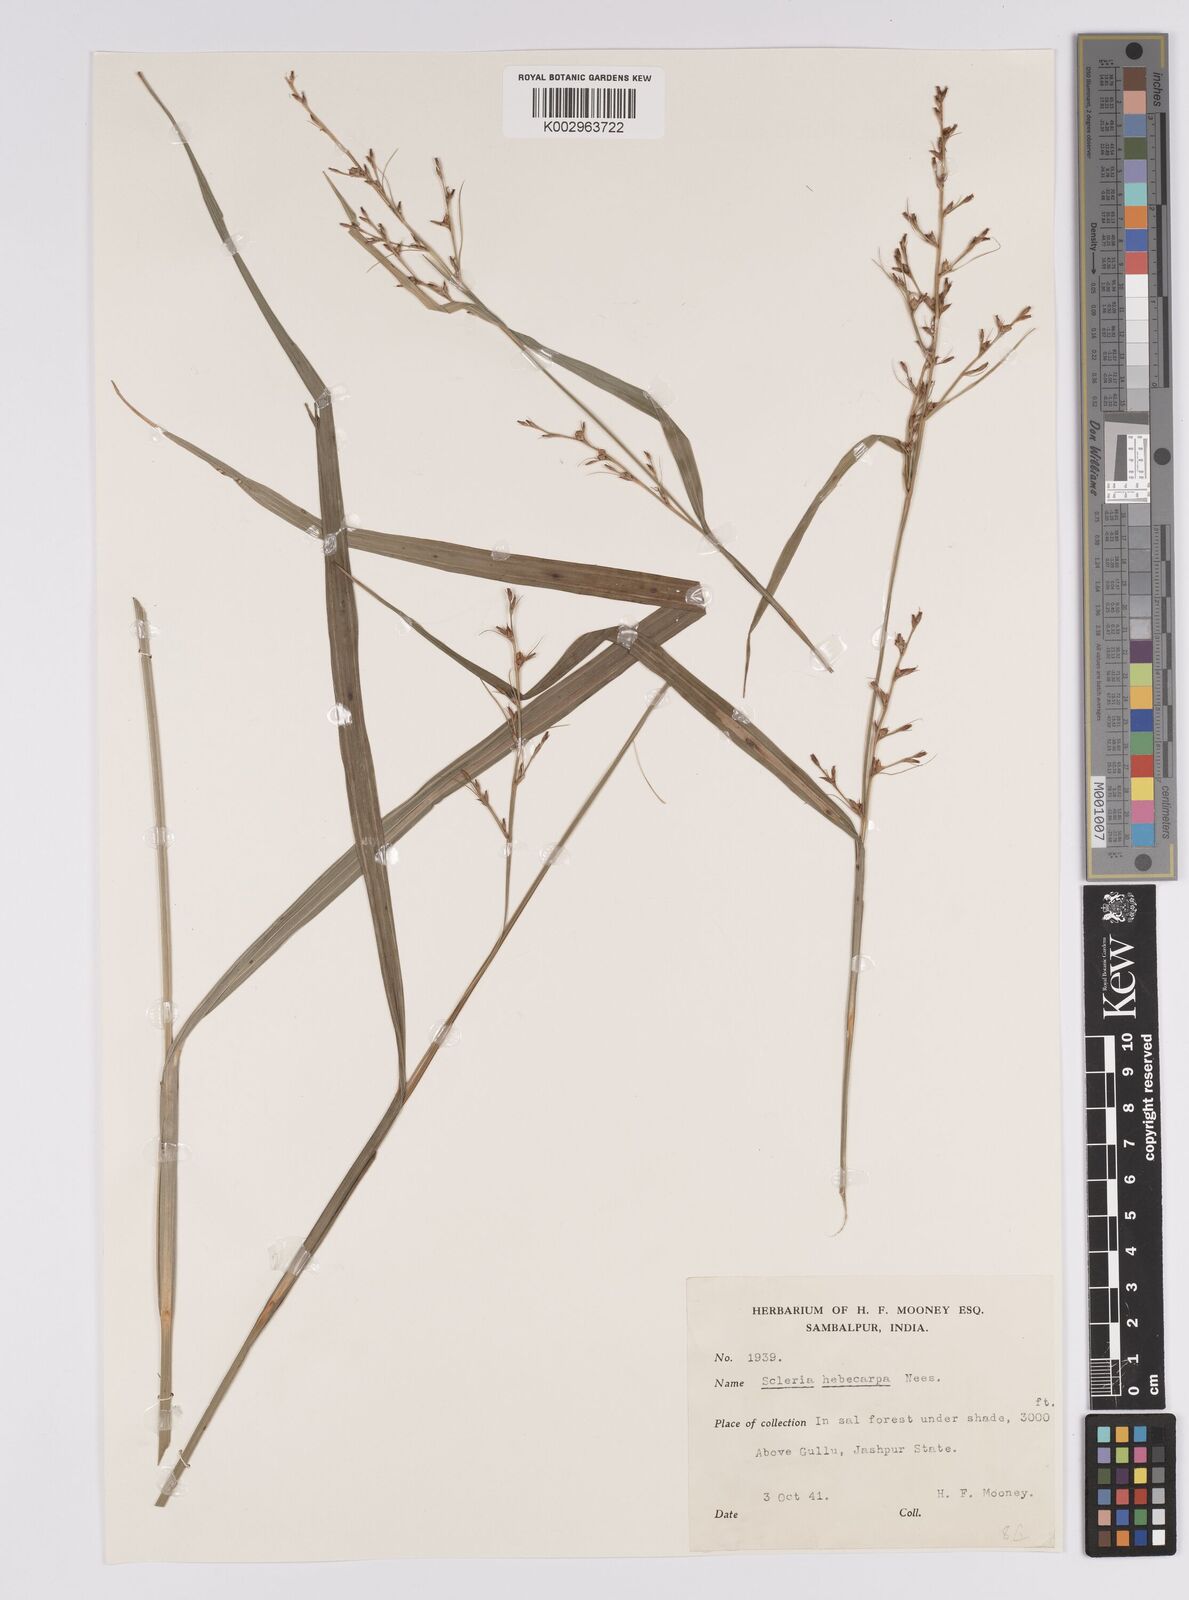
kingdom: Plantae
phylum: Tracheophyta
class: Liliopsida
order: Poales
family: Cyperaceae
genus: Scleria
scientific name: Scleria levis
